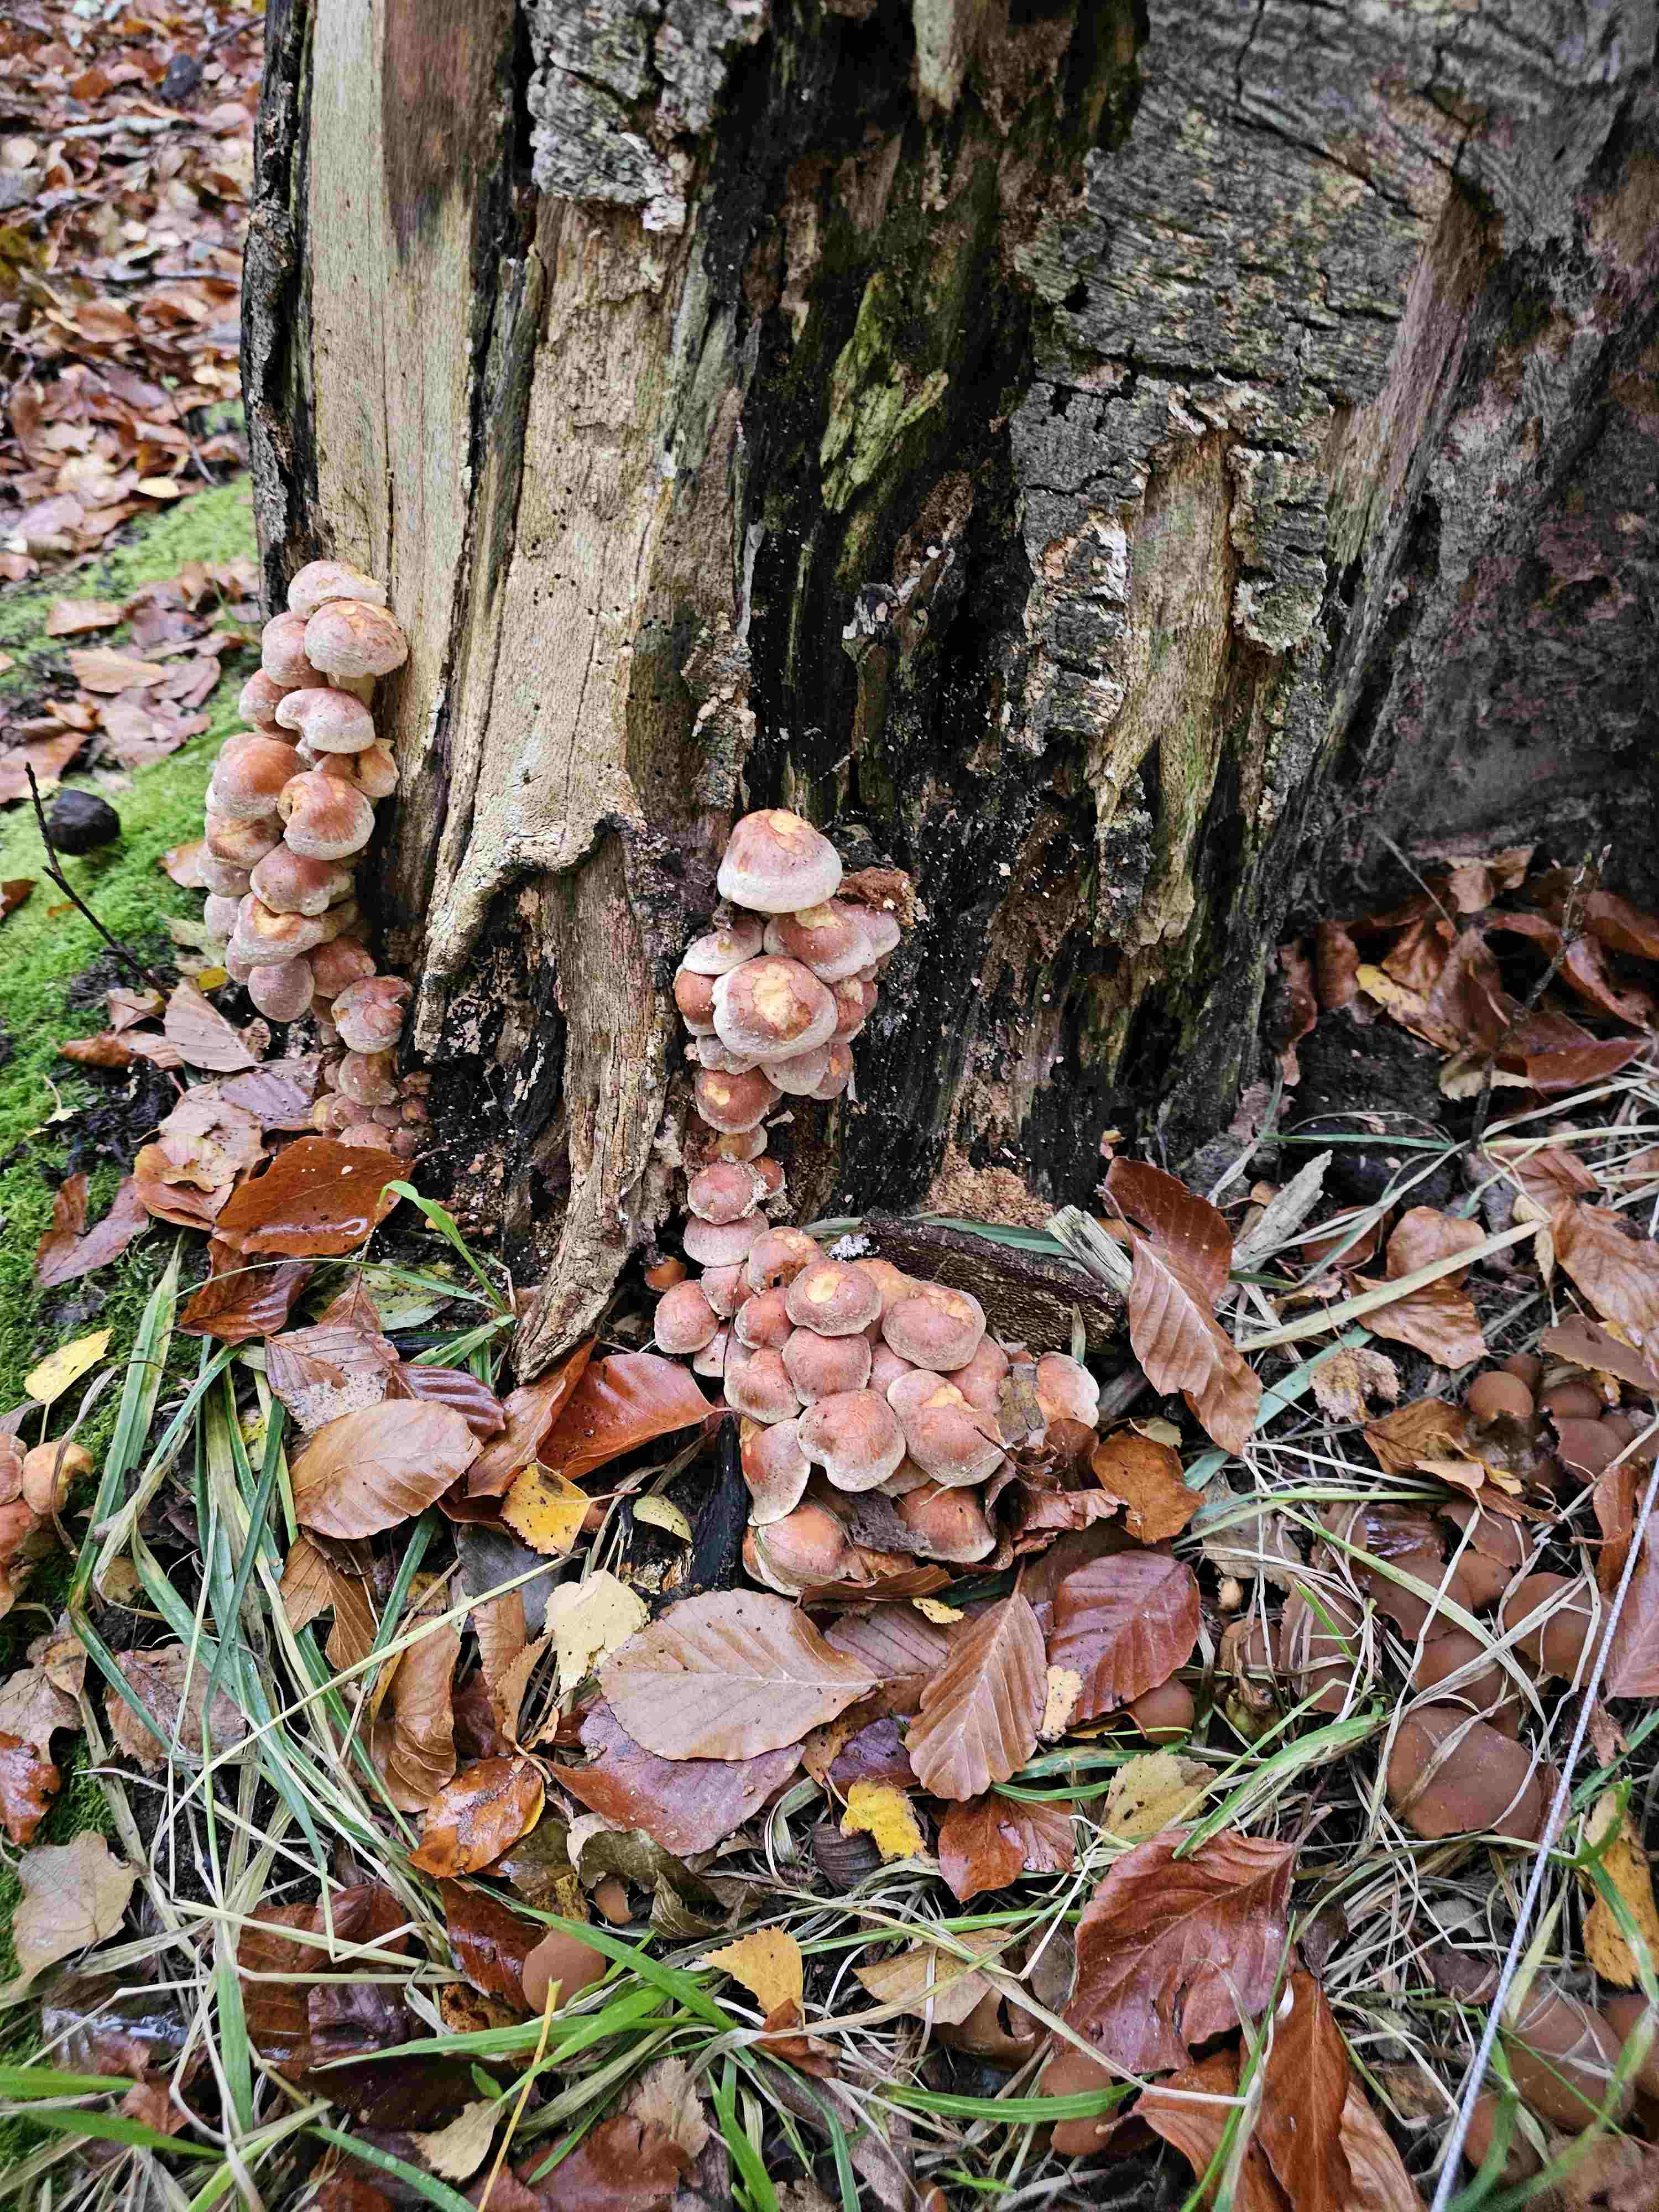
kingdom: Fungi
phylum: Basidiomycota
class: Agaricomycetes
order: Agaricales
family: Strophariaceae
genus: Hypholoma
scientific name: Hypholoma lateritium
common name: teglrød svovlhat
